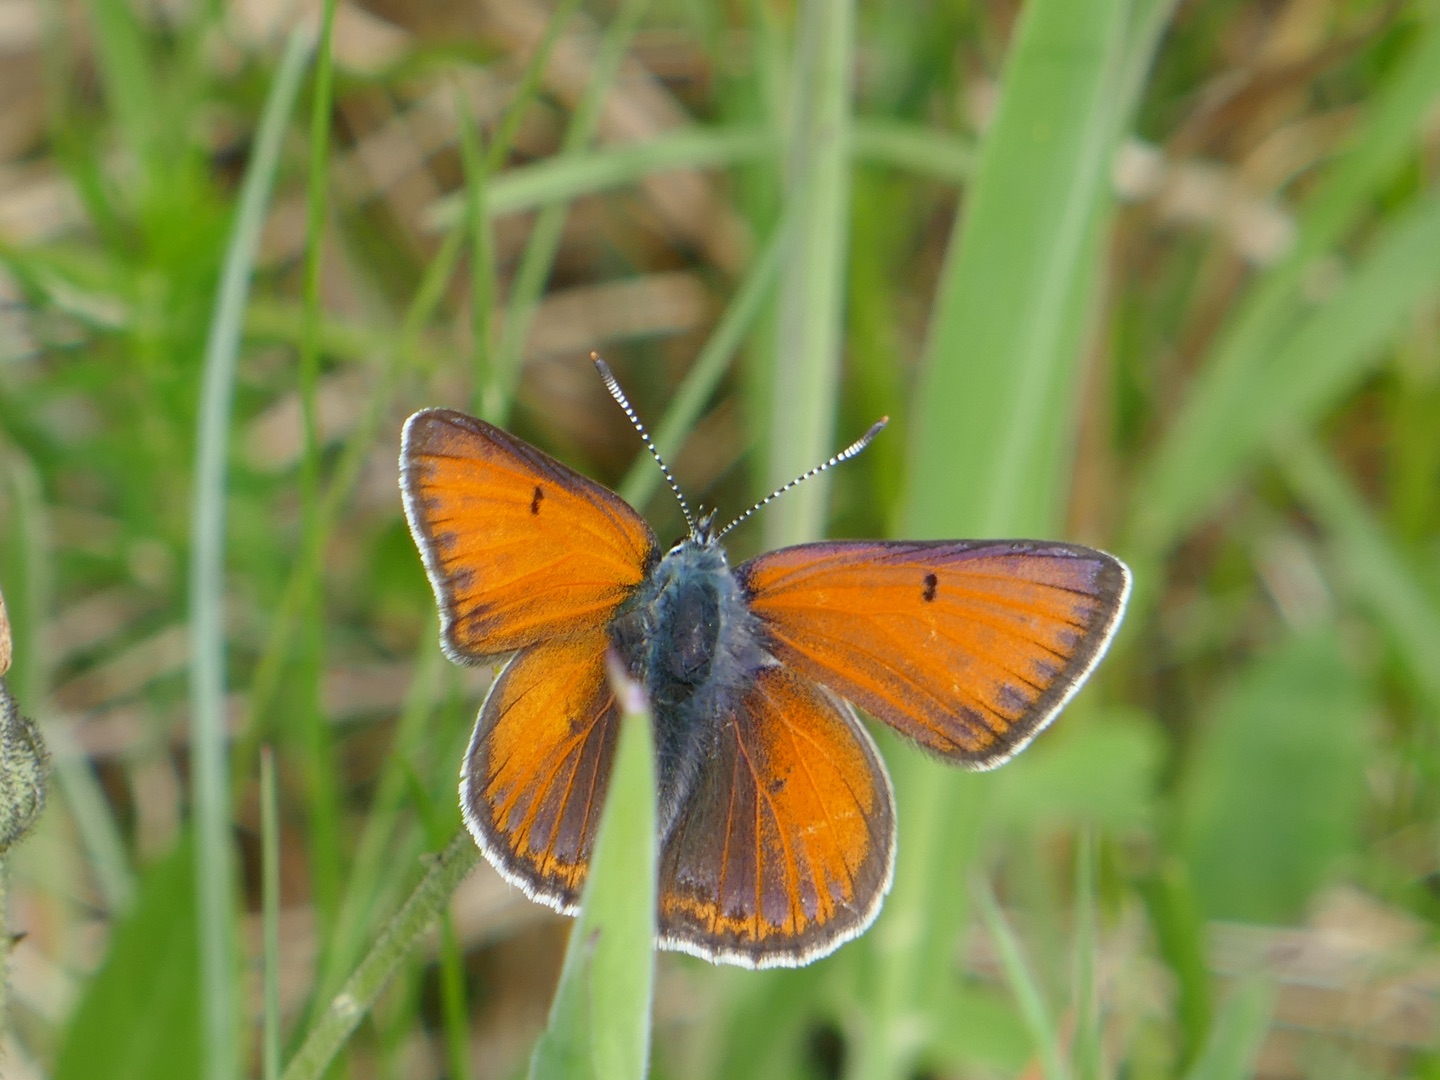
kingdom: Animalia
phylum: Arthropoda
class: Insecta
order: Lepidoptera
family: Lycaenidae
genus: Palaeochrysophanus
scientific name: Palaeochrysophanus hippothoe
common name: Violetrandet ildfugl
